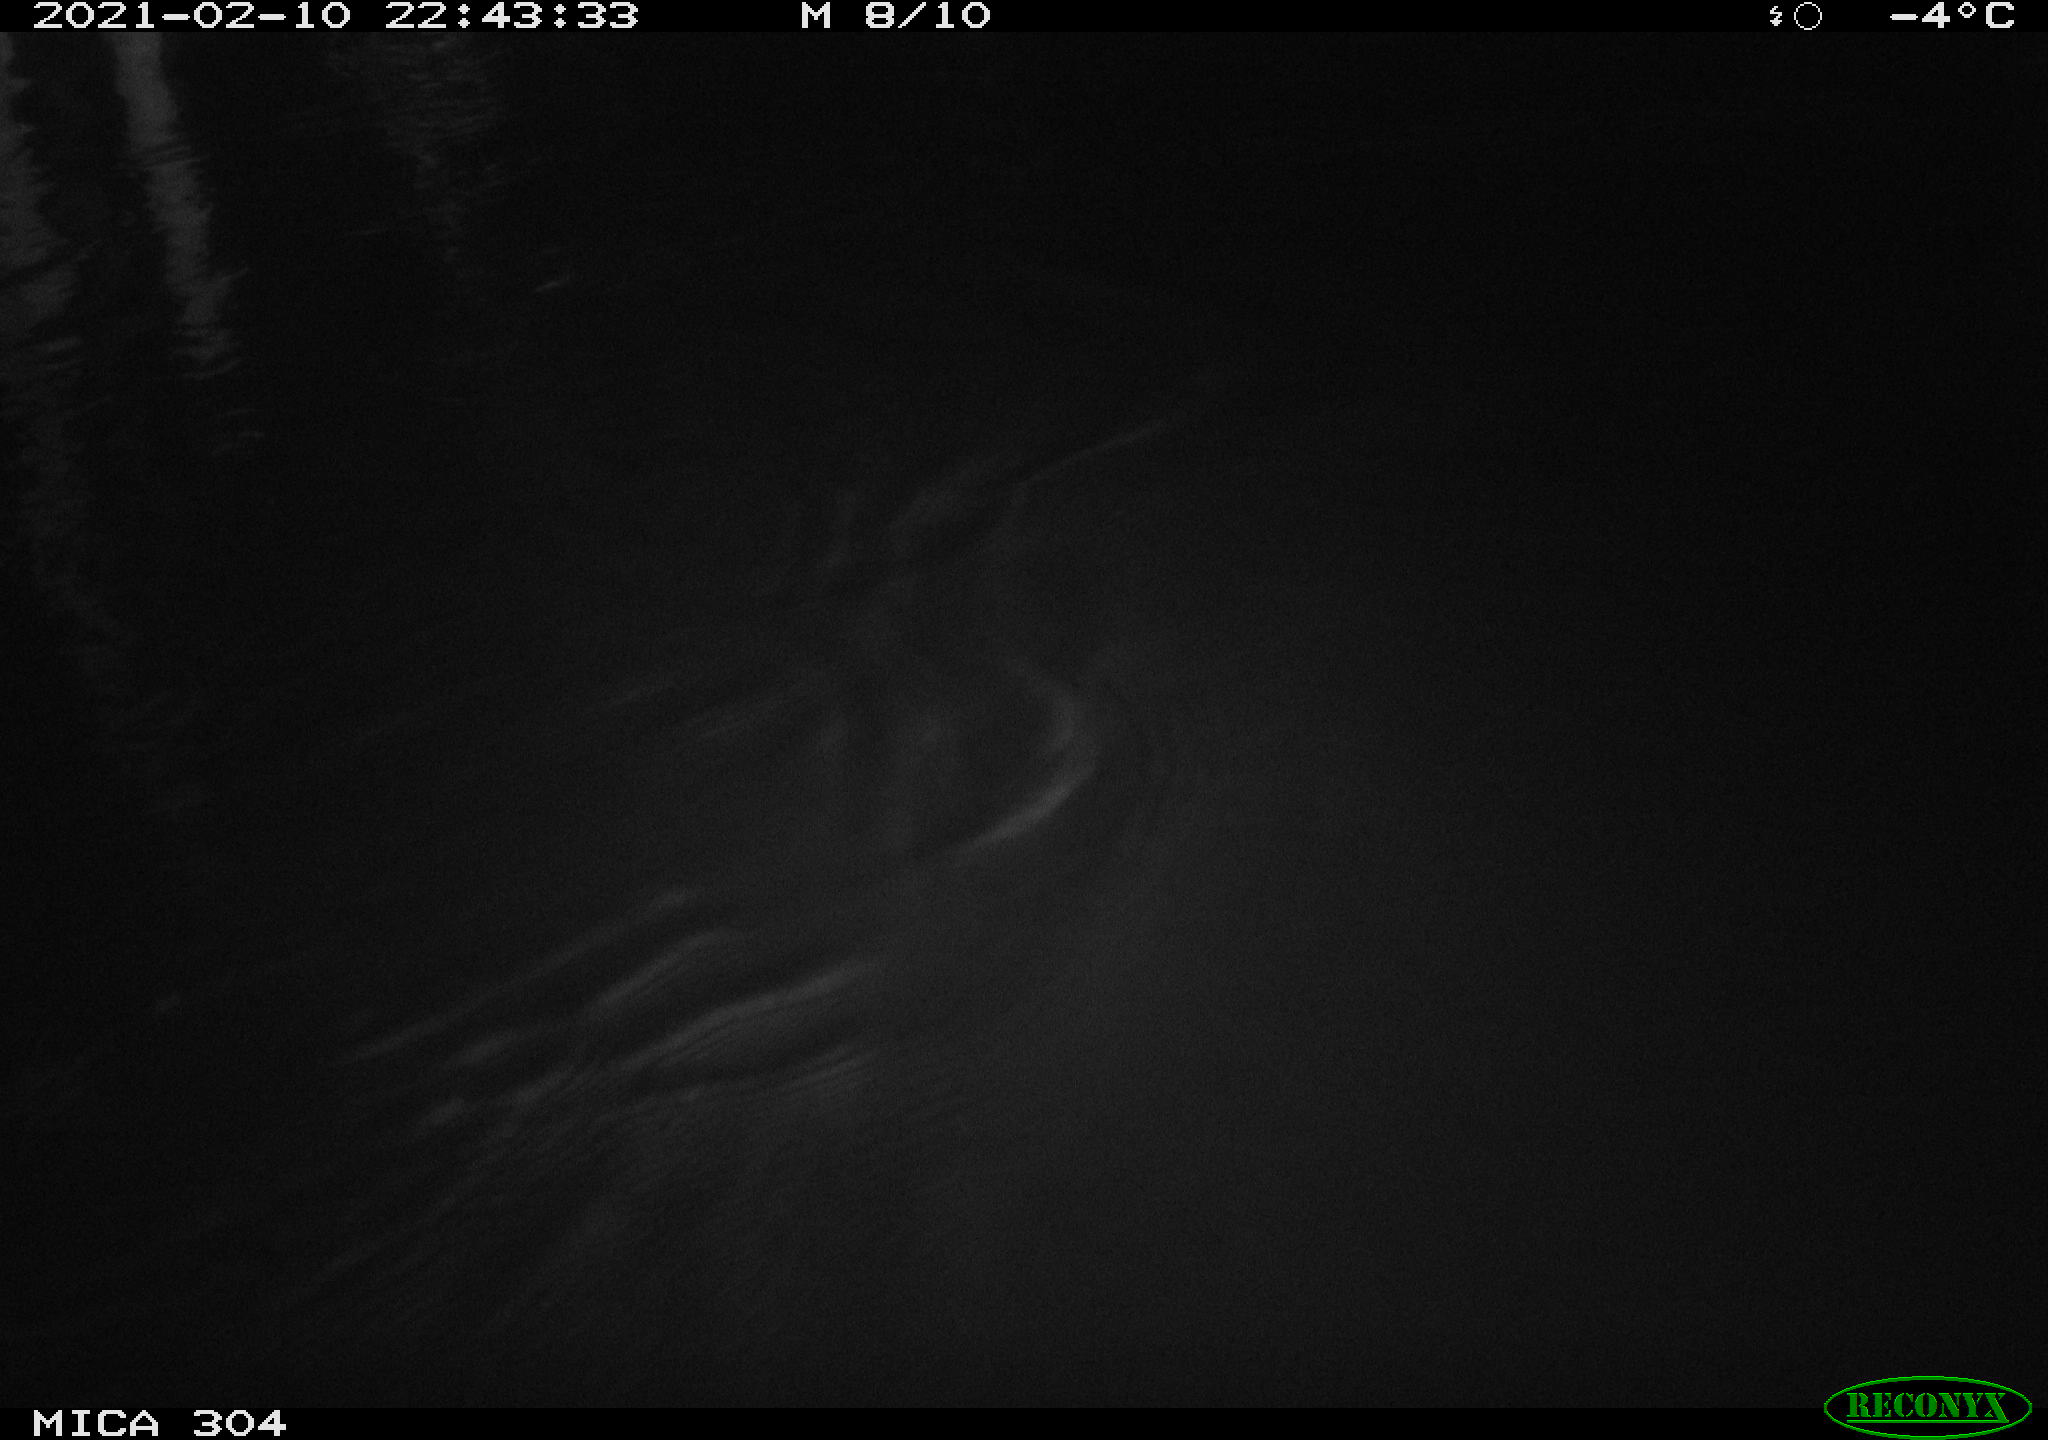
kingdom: Animalia
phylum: Chordata
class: Mammalia
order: Rodentia
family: Muridae
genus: Rattus
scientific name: Rattus norvegicus
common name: Brown rat
